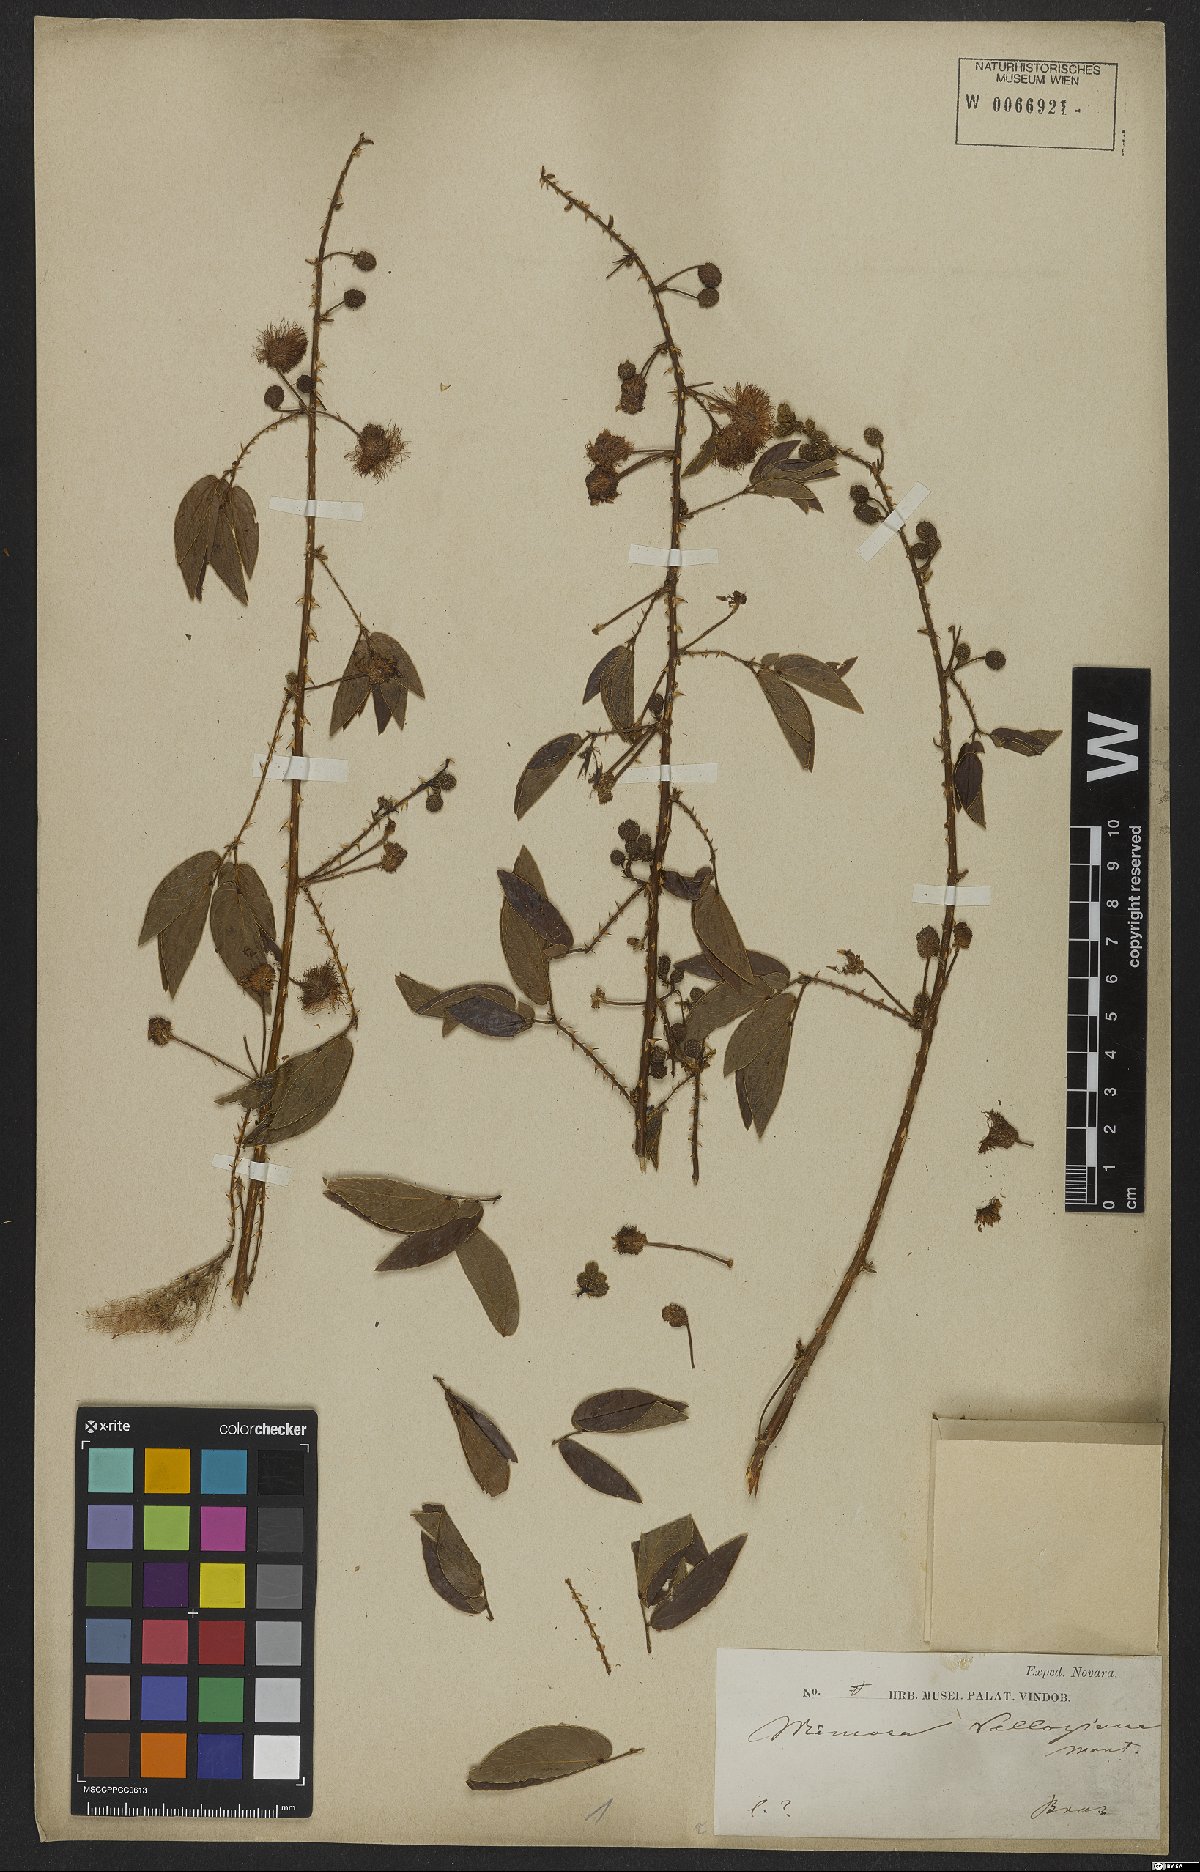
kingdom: Plantae
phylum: Tracheophyta
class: Magnoliopsida
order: Fabales
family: Fabaceae
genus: Mimosa
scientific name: Mimosa velloziana
